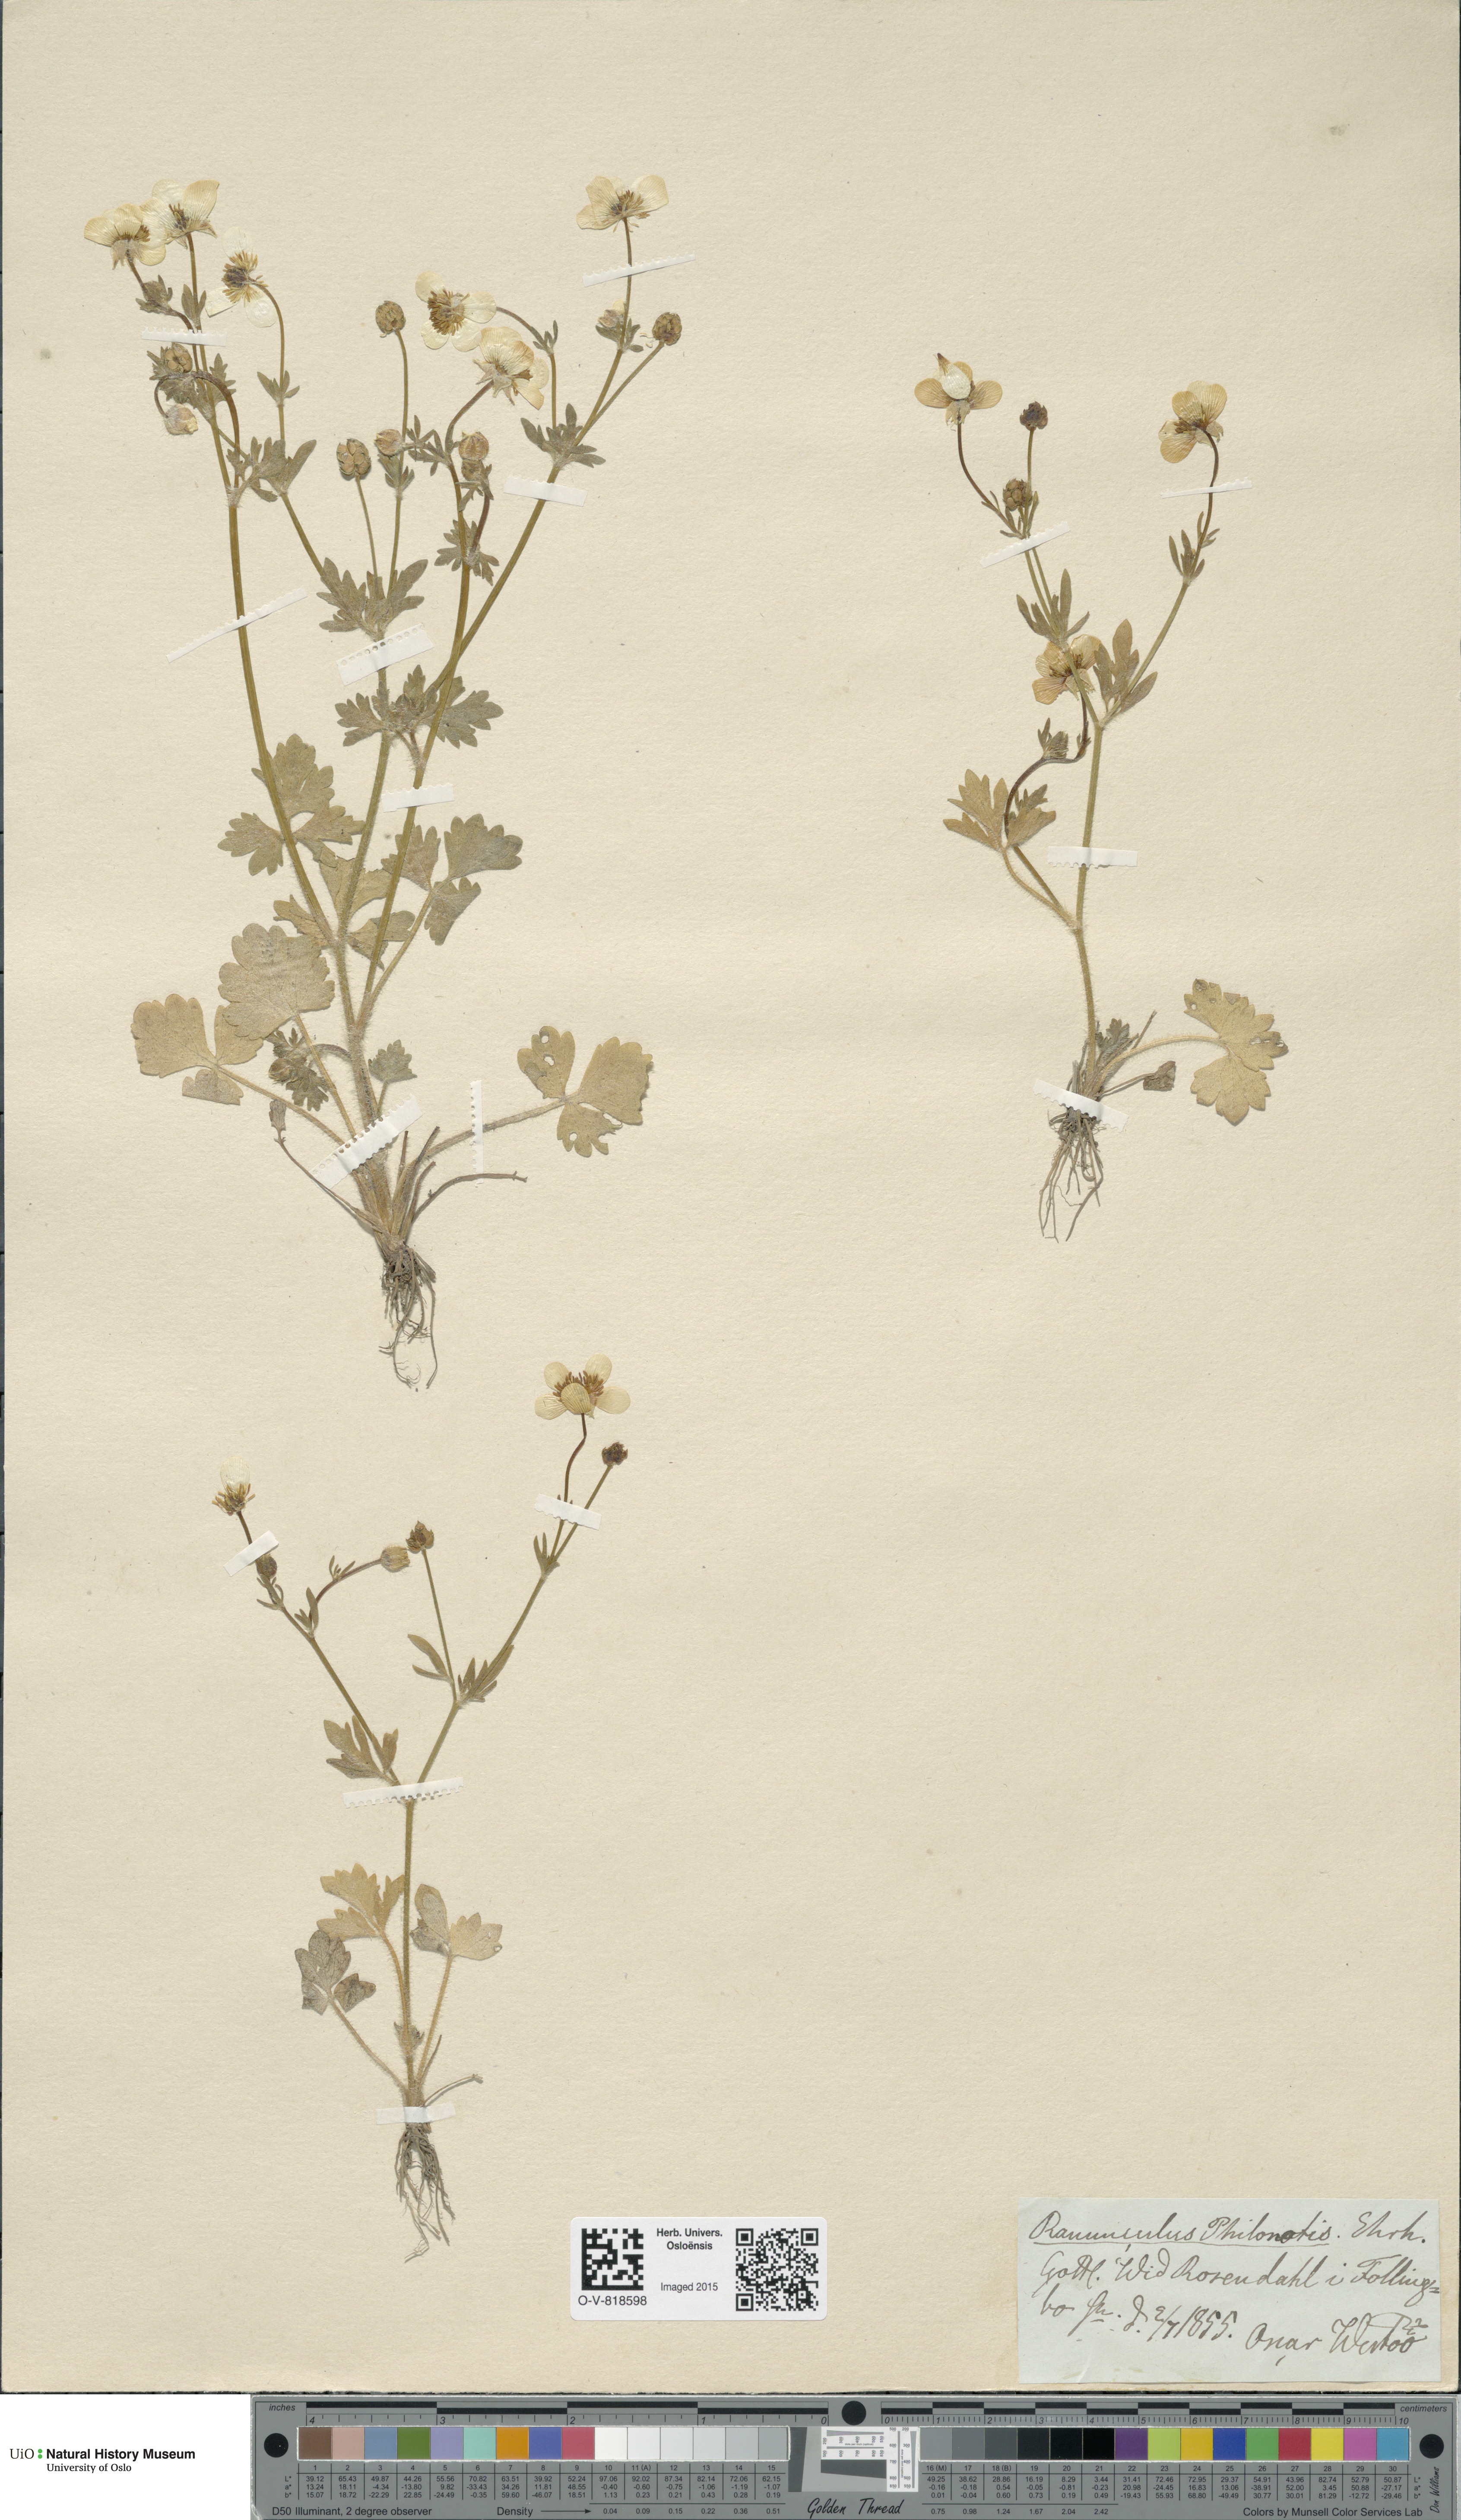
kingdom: Plantae
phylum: Tracheophyta
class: Magnoliopsida
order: Ranunculales
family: Ranunculaceae
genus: Ranunculus
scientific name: Ranunculus sardous
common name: Hairy buttercup
